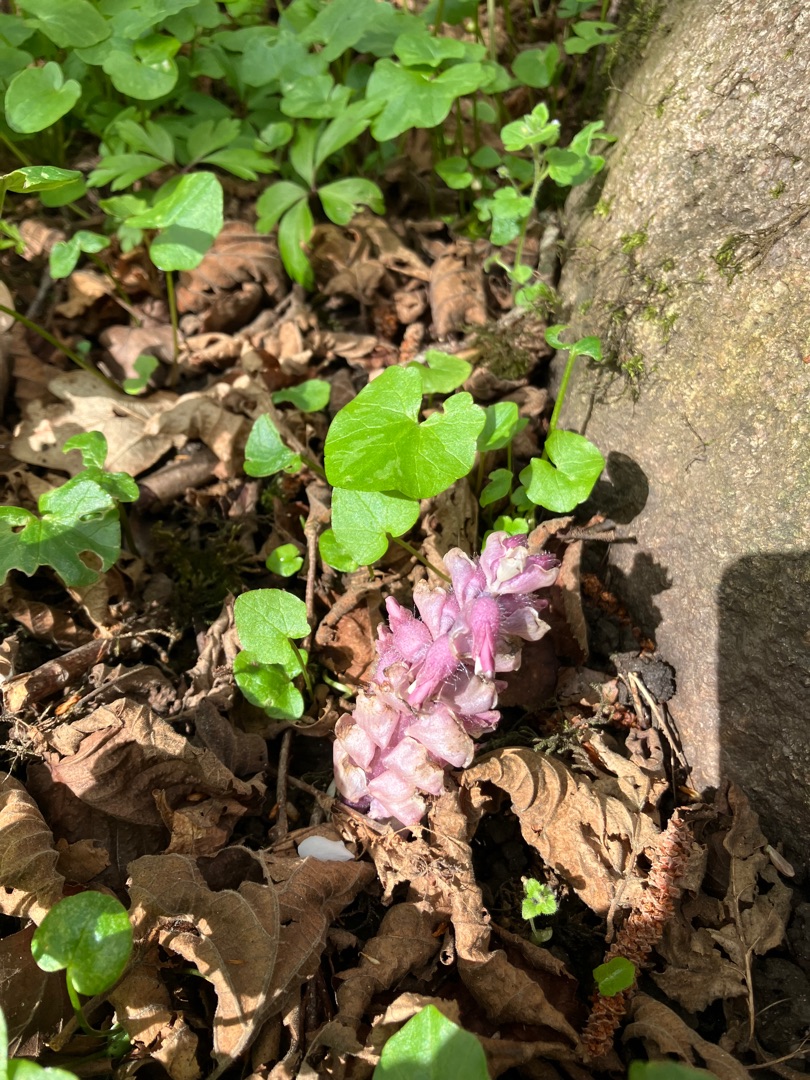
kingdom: Plantae
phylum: Tracheophyta
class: Magnoliopsida
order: Lamiales
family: Orobanchaceae
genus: Lathraea
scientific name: Lathraea squamaria
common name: Skælrod
